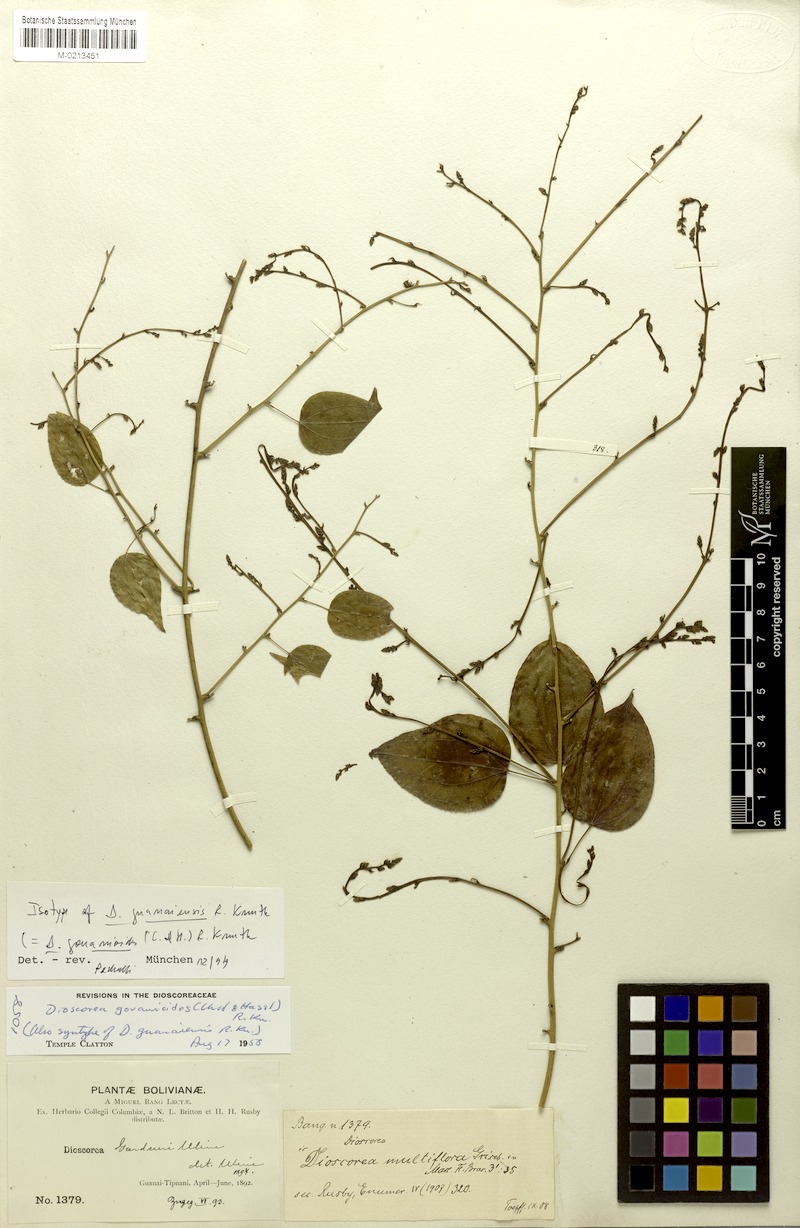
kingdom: Plantae
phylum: Tracheophyta
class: Liliopsida
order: Dioscoreales
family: Dioscoreaceae
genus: Dioscorea
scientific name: Dioscorea acanthogene
